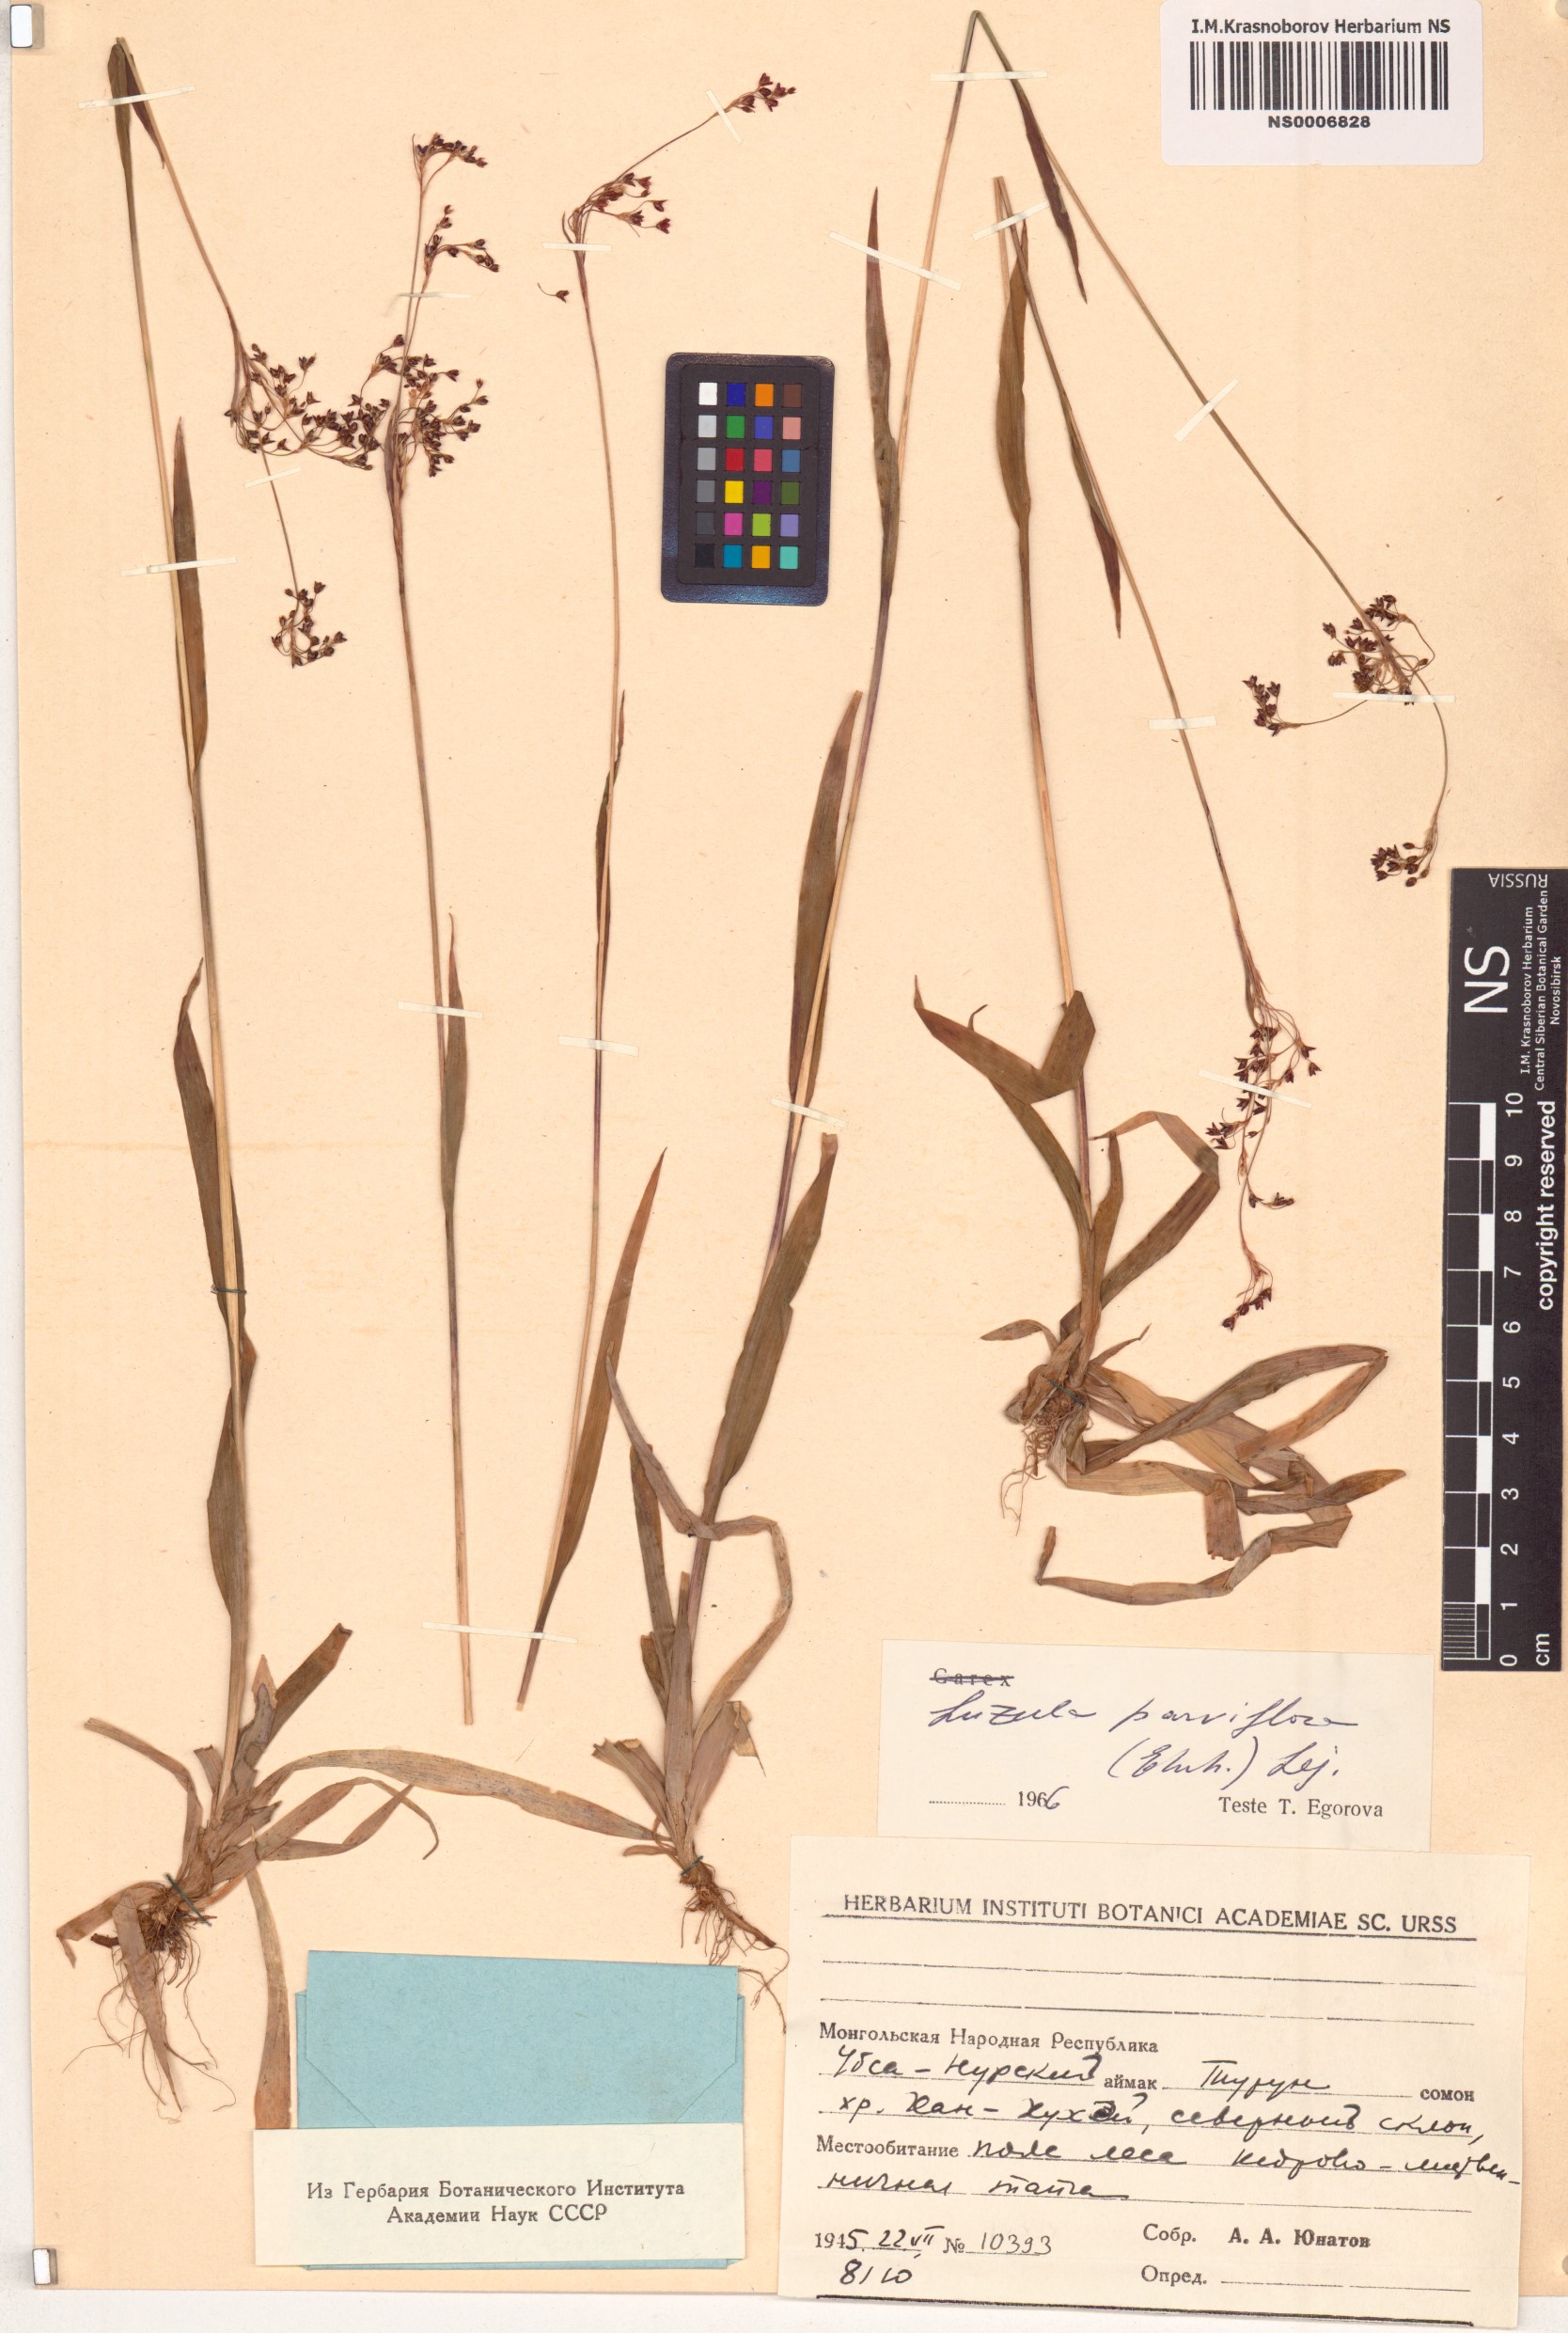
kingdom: Plantae
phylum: Tracheophyta
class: Liliopsida
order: Poales
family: Juncaceae
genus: Luzula
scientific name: Luzula parviflora
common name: Millet woodrush
